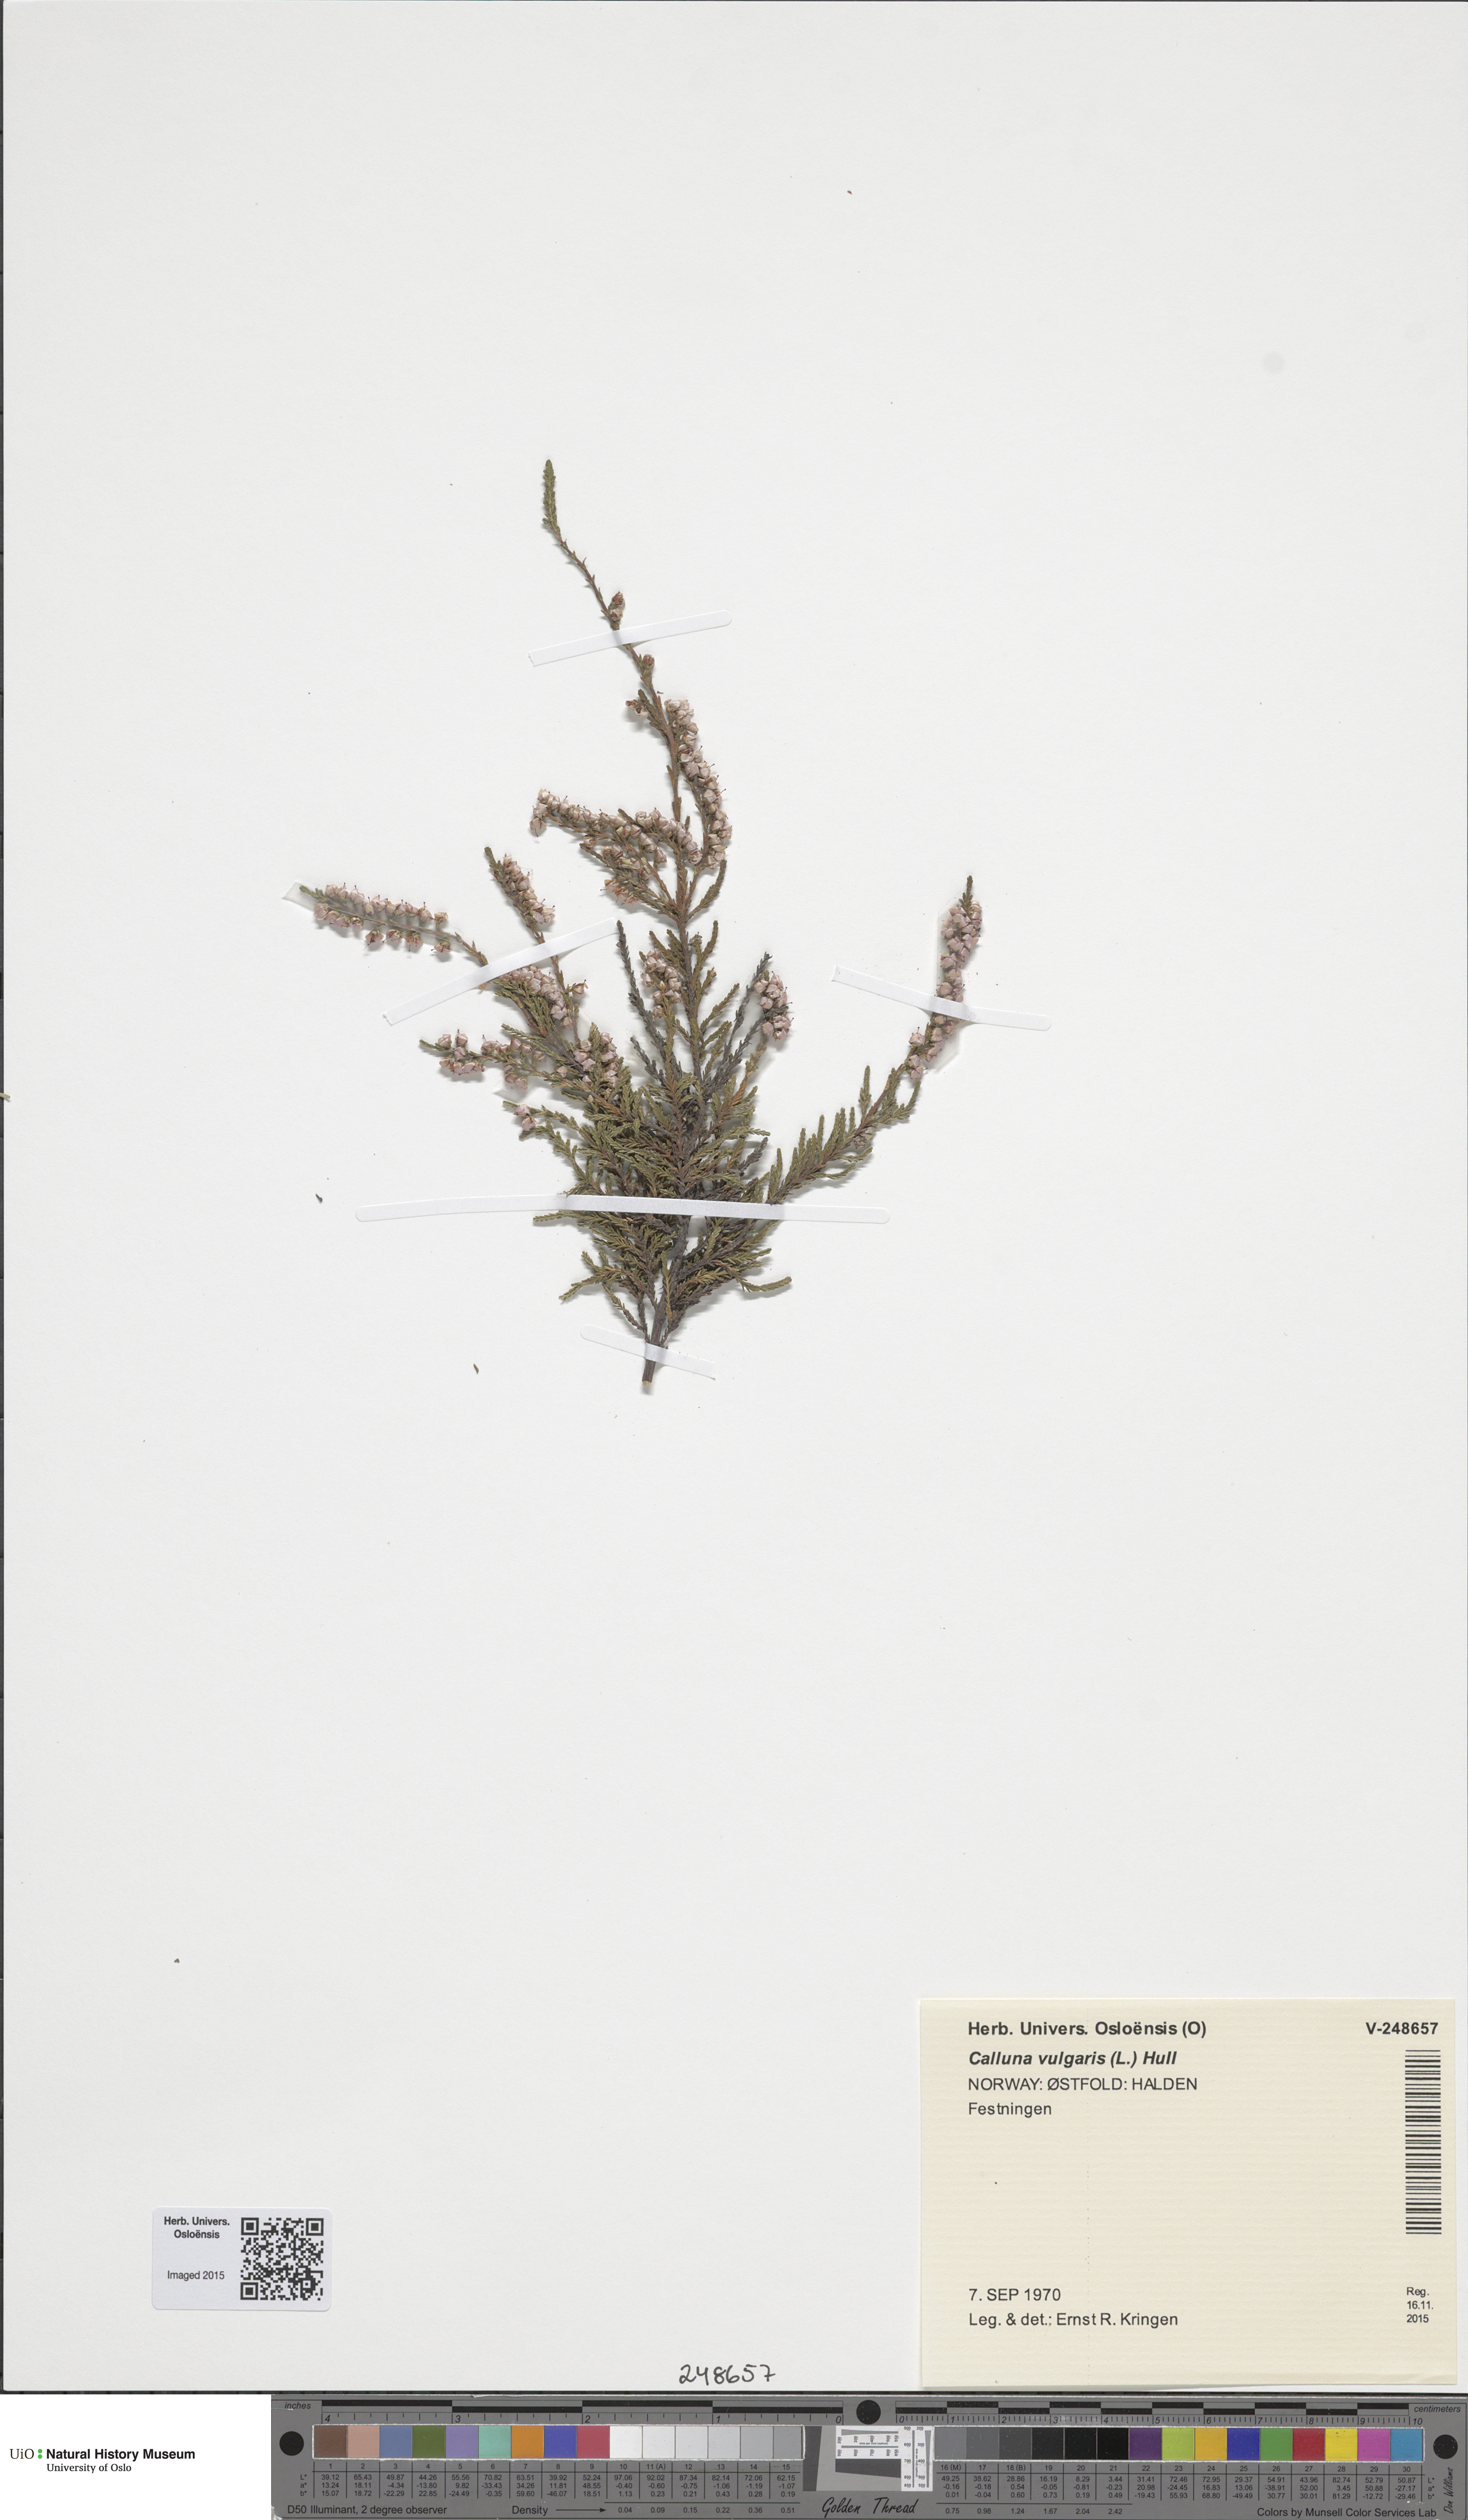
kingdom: Plantae
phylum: Tracheophyta
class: Magnoliopsida
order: Ericales
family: Ericaceae
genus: Calluna
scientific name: Calluna vulgaris
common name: Heather
